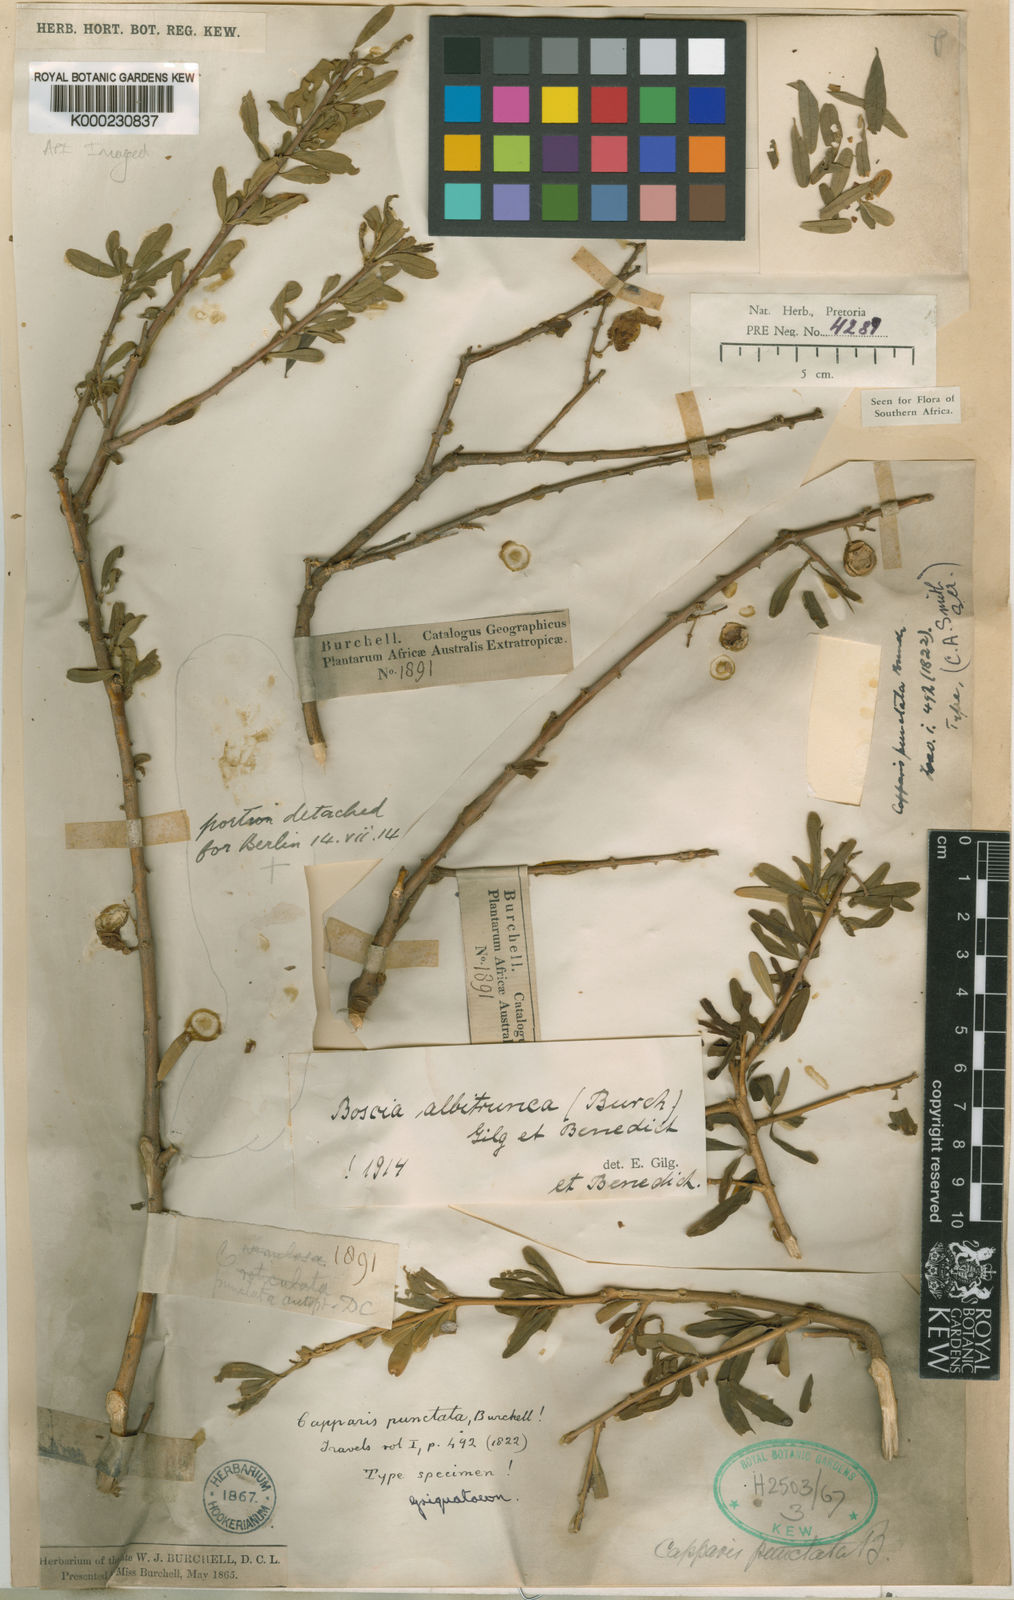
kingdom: Plantae
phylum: Tracheophyta
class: Magnoliopsida
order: Brassicales
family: Capparaceae
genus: Boscia
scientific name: Boscia albitrunca
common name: Caper bush
